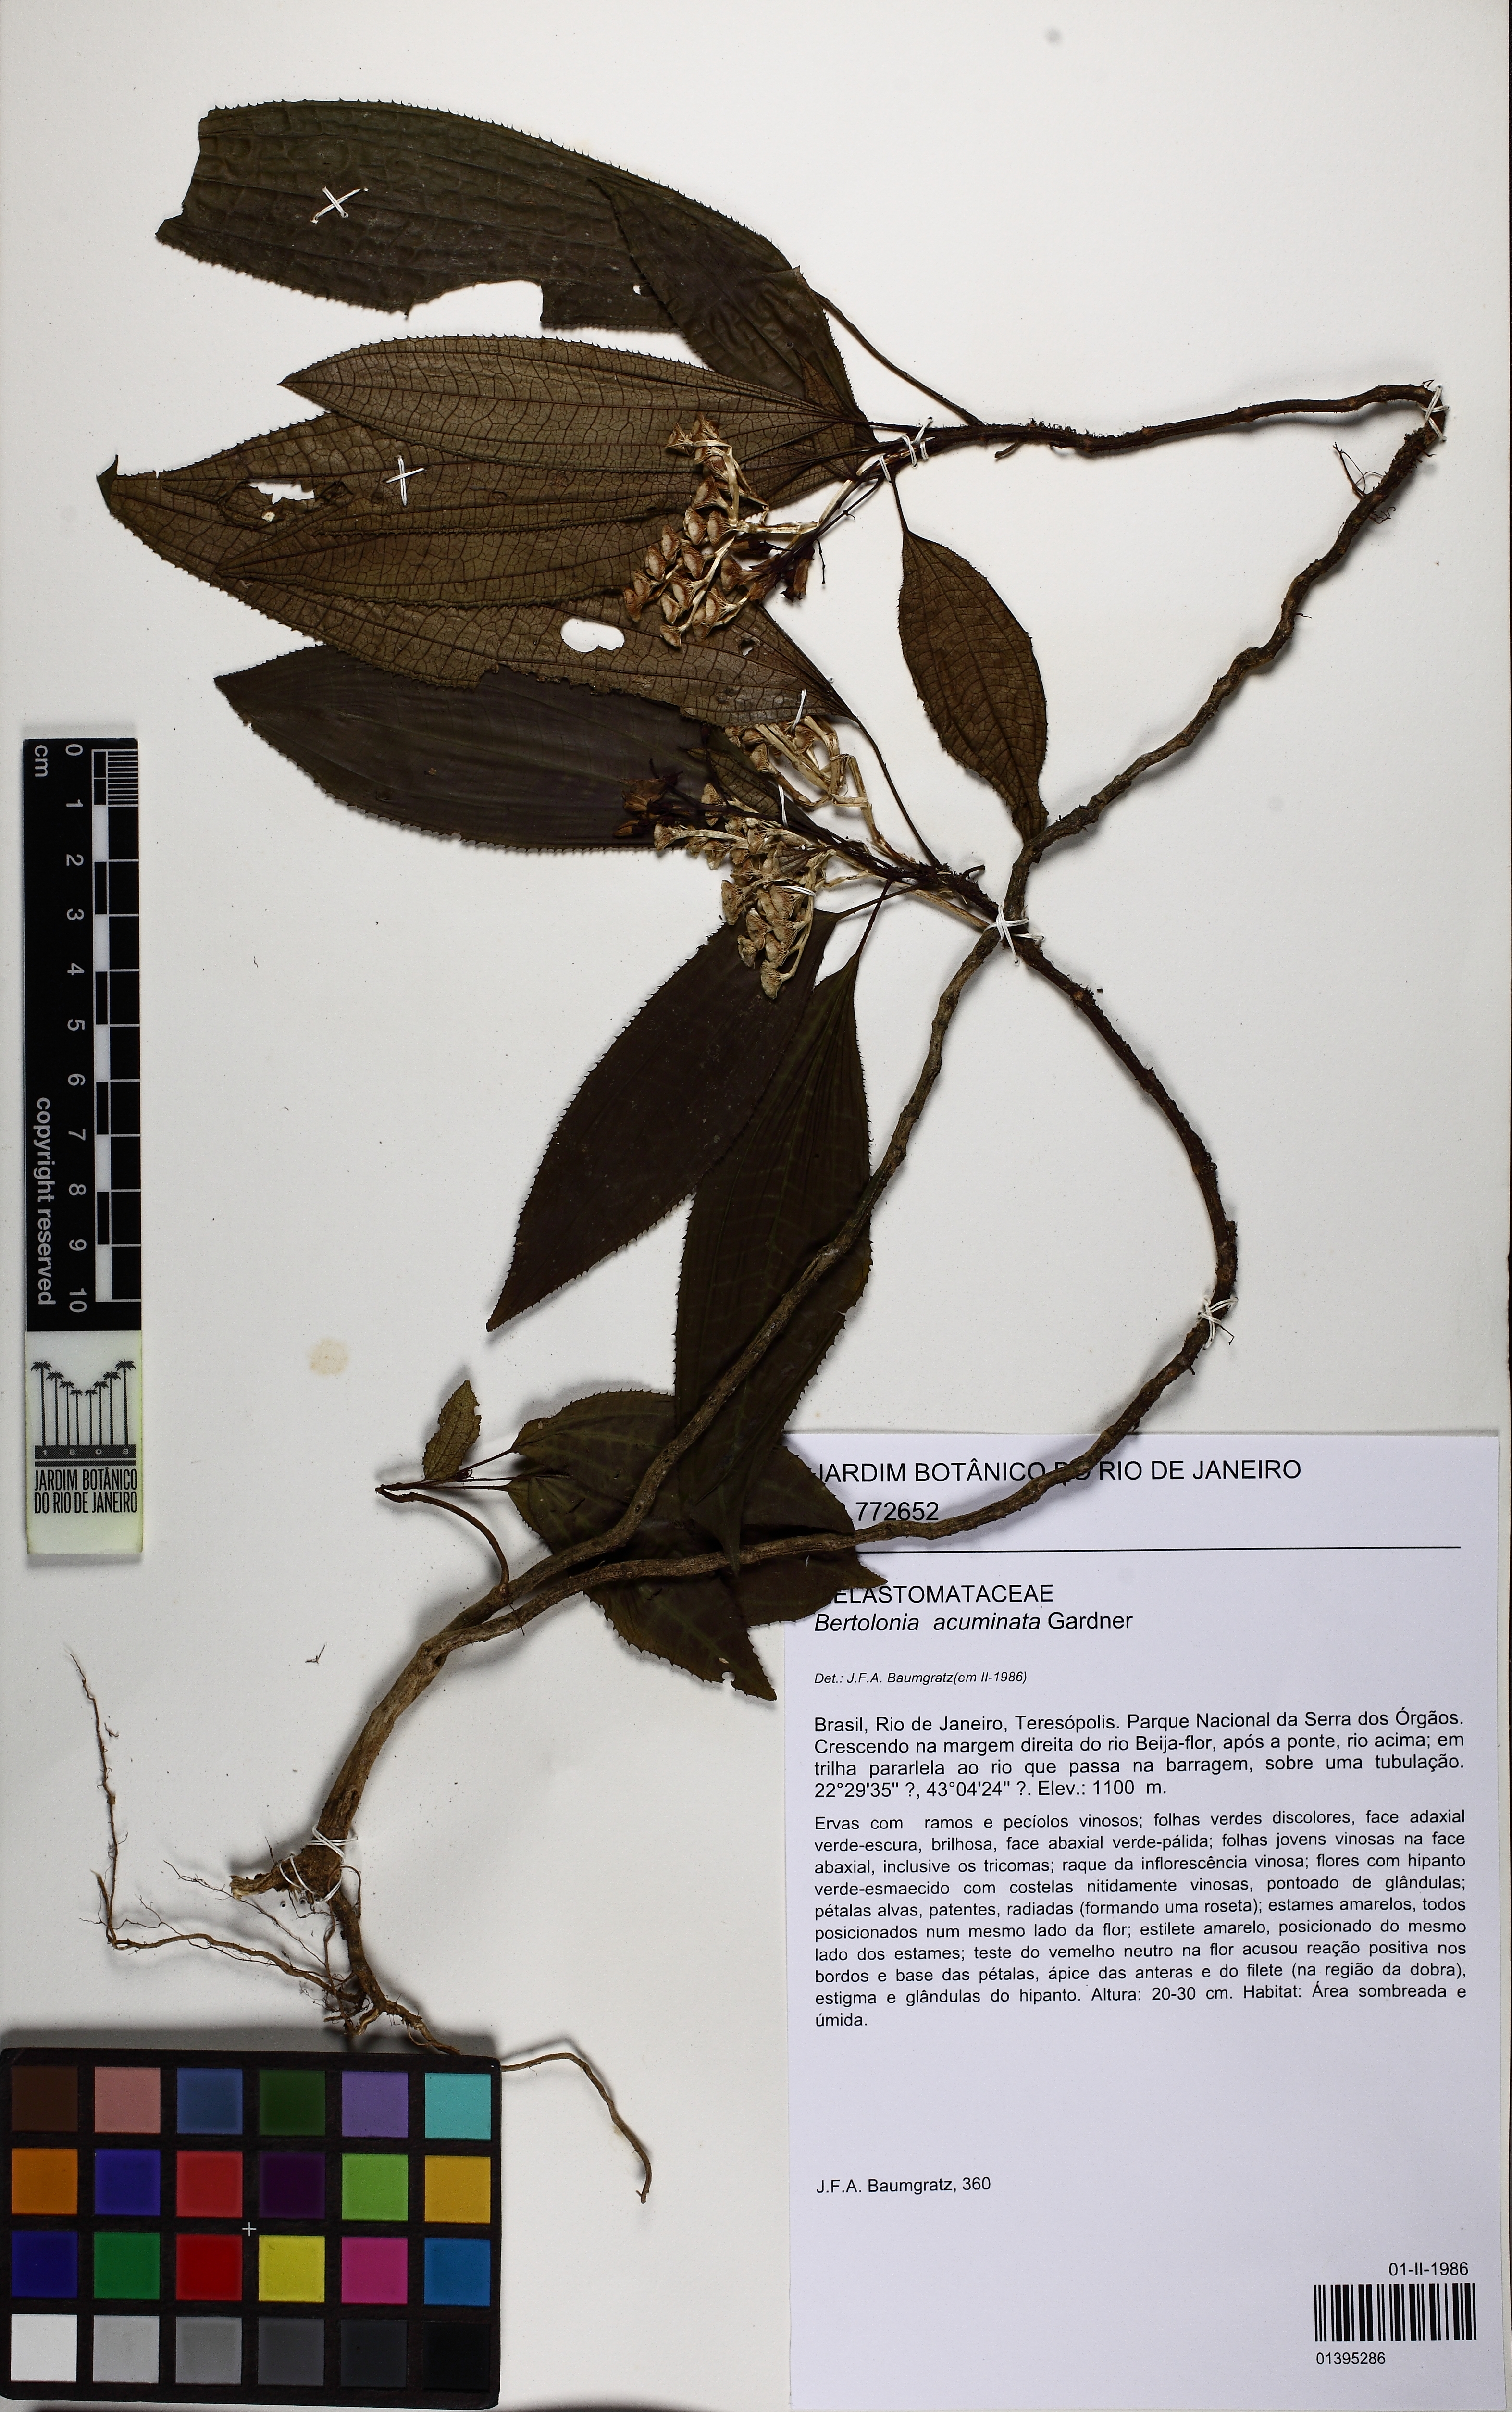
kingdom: Plantae
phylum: Tracheophyta
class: Magnoliopsida
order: Myrtales
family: Melastomataceae
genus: Bertolonia
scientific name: Bertolonia acuminata
